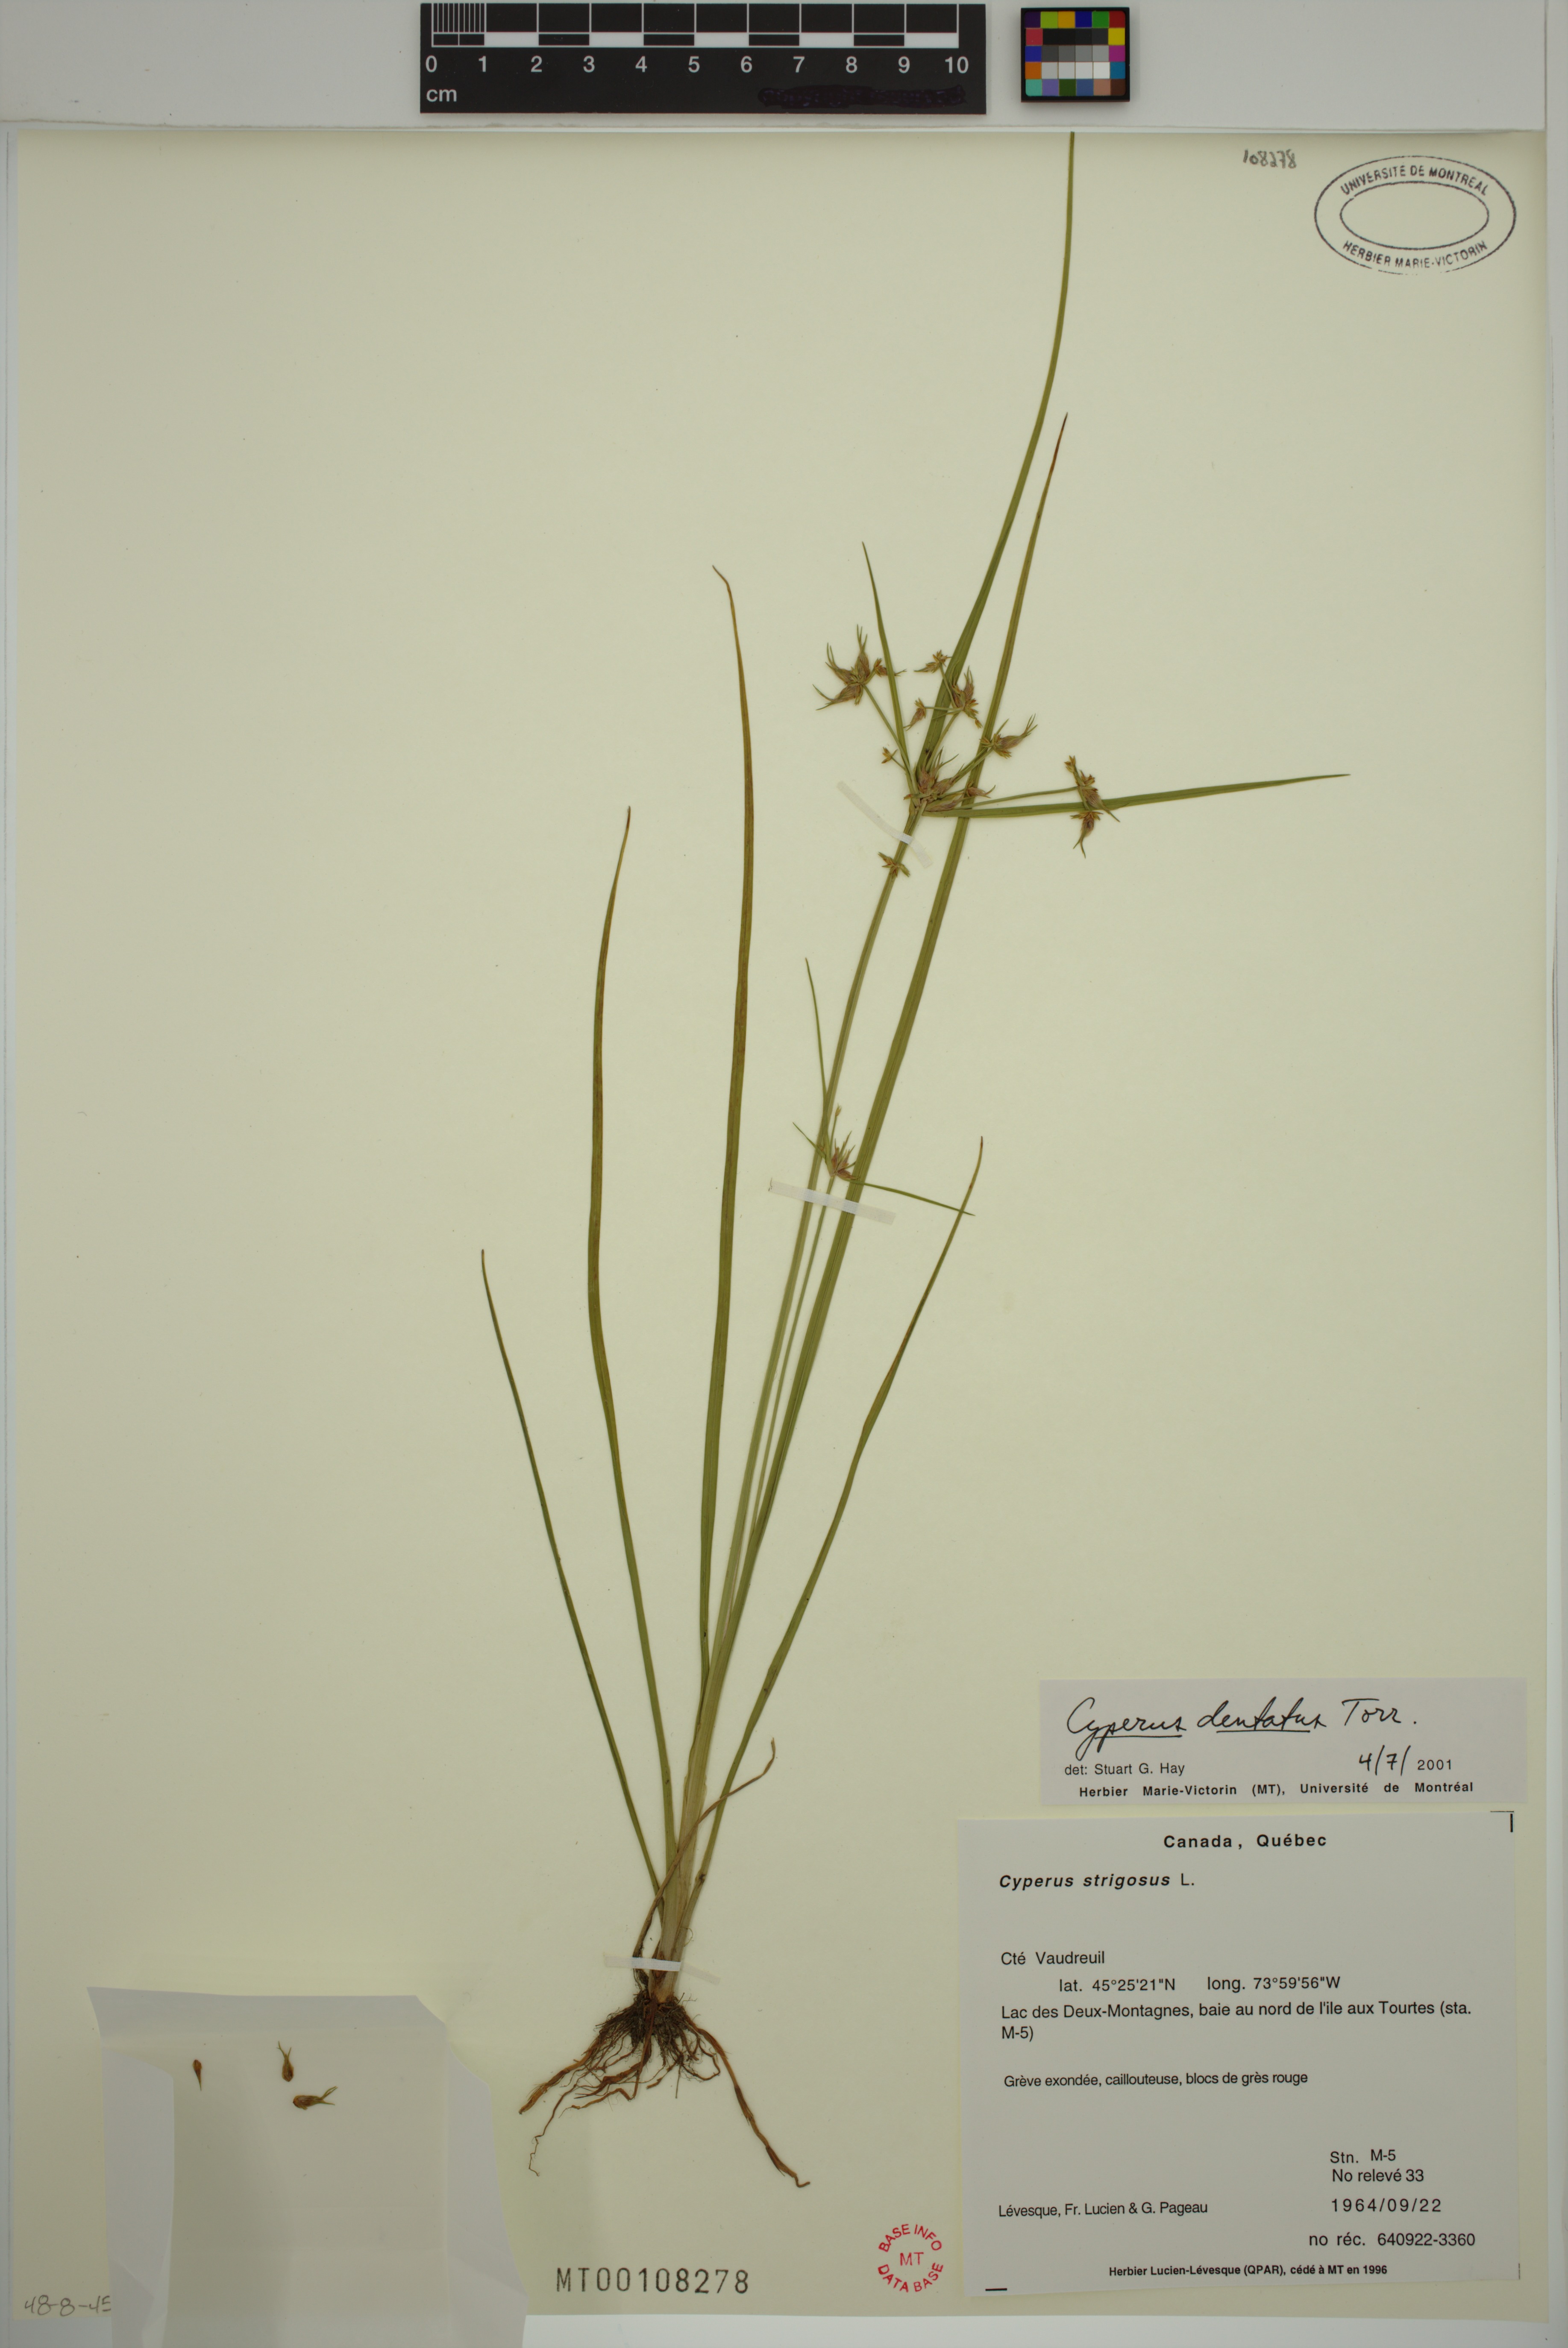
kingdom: Plantae
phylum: Tracheophyta
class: Liliopsida
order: Poales
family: Cyperaceae
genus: Cyperus
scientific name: Cyperus dentatus
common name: Dentate umbrella sedge
